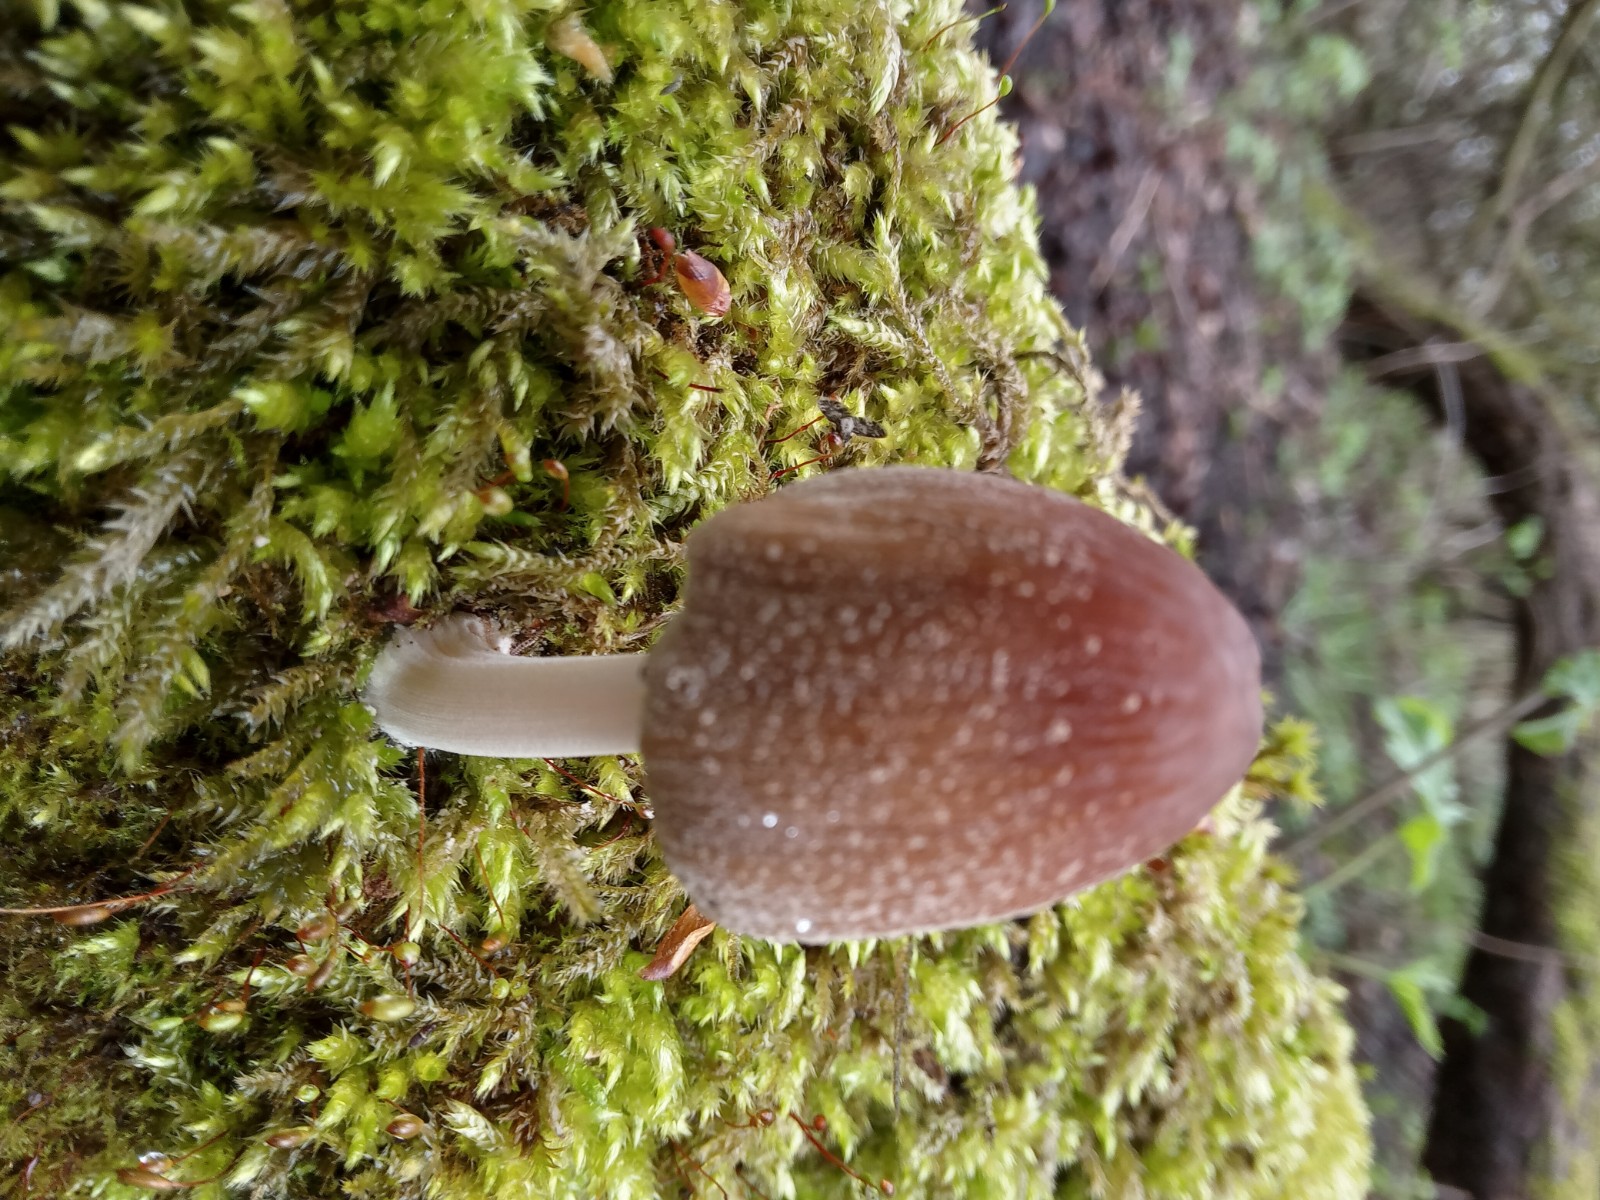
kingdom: Fungi
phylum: Basidiomycota
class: Agaricomycetes
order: Agaricales
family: Psathyrellaceae
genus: Coprinellus
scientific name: Coprinellus radians
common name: grynet blækhat
